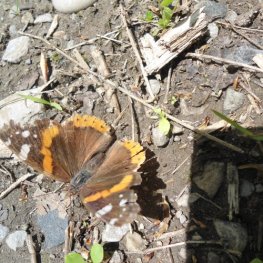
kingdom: Animalia
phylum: Arthropoda
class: Insecta
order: Lepidoptera
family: Nymphalidae
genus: Vanessa
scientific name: Vanessa atalanta
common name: Red Admiral
